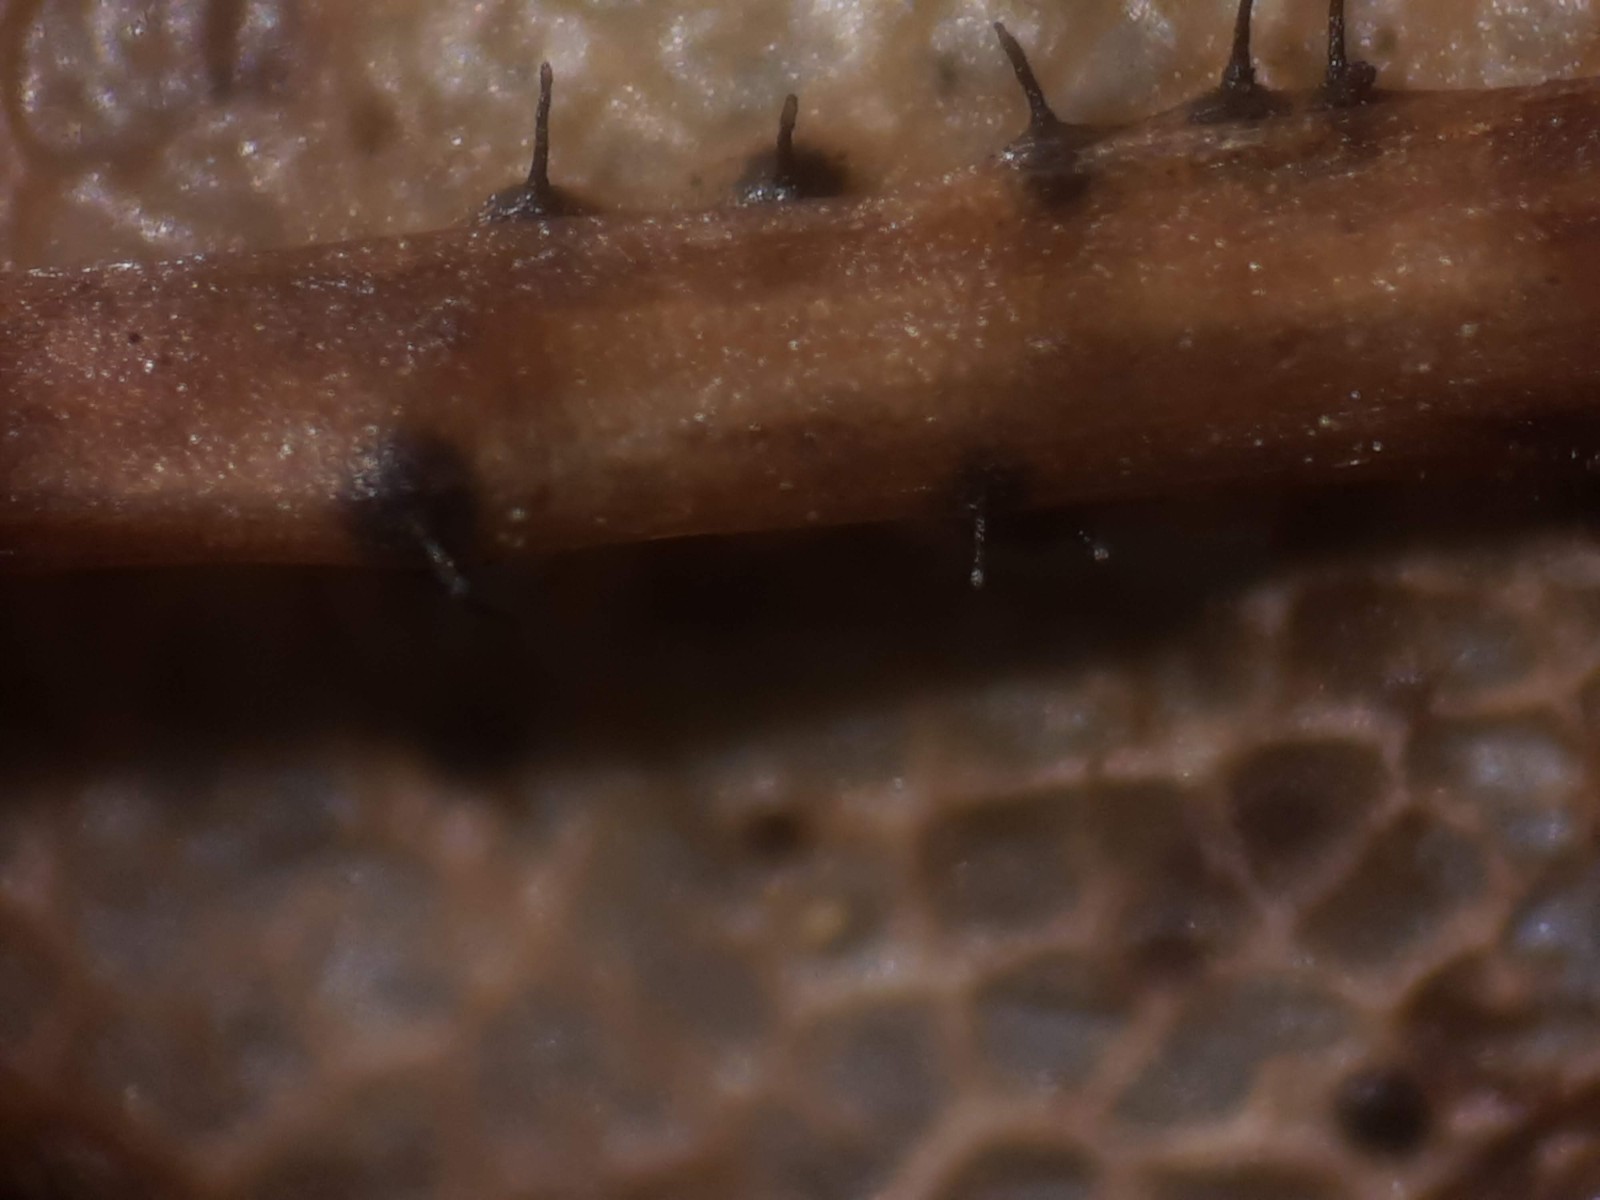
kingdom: Fungi
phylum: Ascomycota
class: Sordariomycetes
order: Diaporthales
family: Gnomoniaceae
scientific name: Gnomoniaceae
